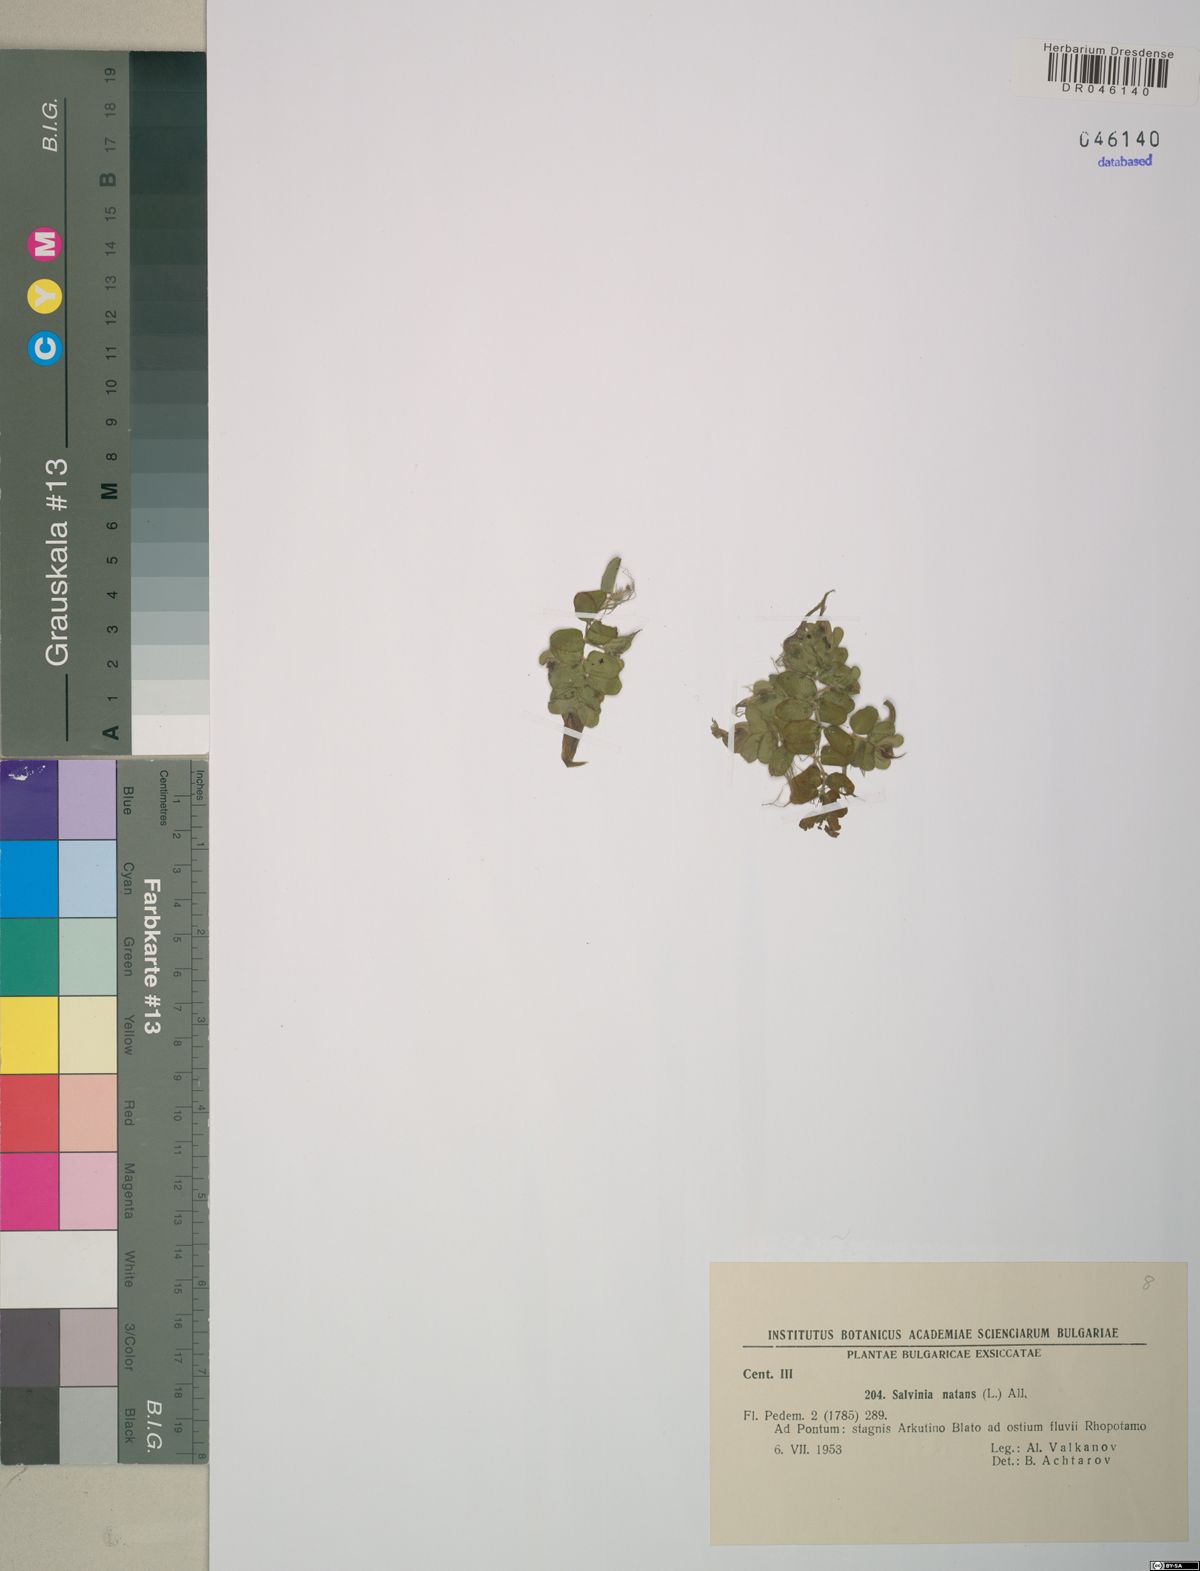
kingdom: Plantae
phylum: Tracheophyta
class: Polypodiopsida
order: Salviniales
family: Salviniaceae
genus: Salvinia
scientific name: Salvinia natans
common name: Floating fern
